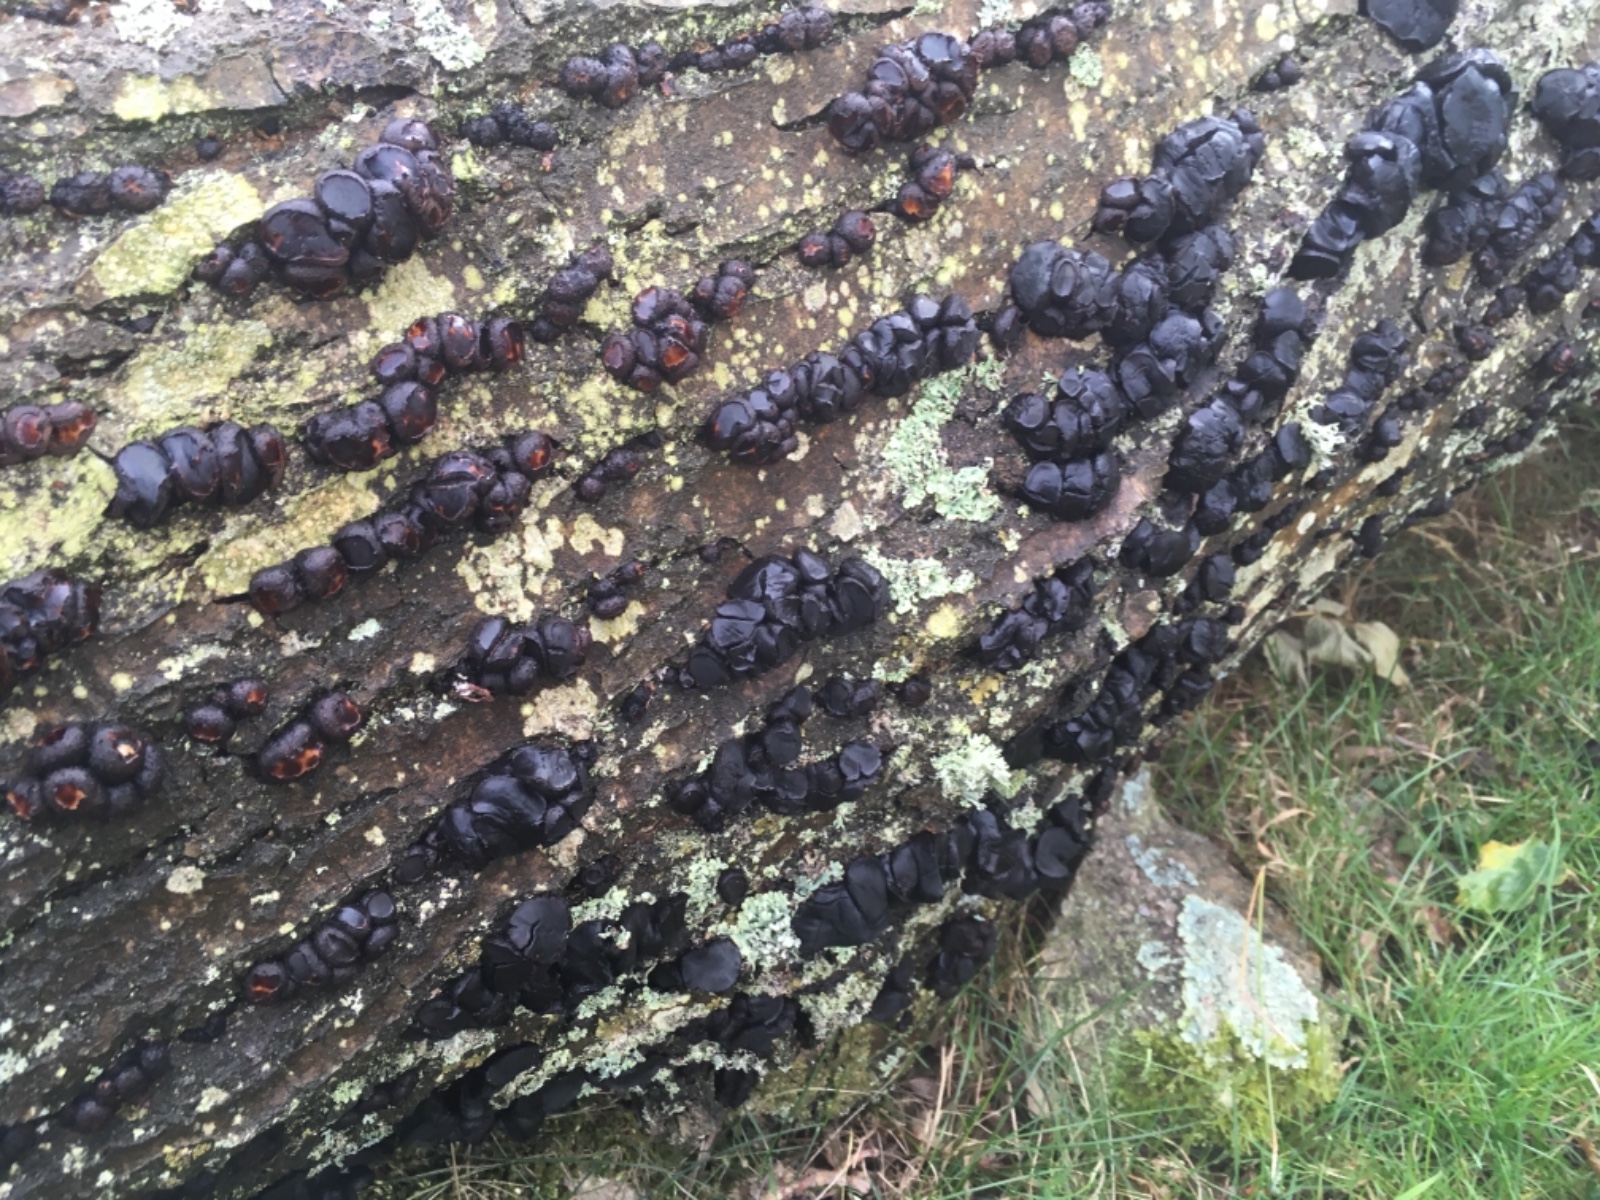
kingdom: Fungi
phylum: Ascomycota
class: Leotiomycetes
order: Phacidiales
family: Phacidiaceae
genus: Bulgaria
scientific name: Bulgaria inquinans
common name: afsmittende topsvamp
